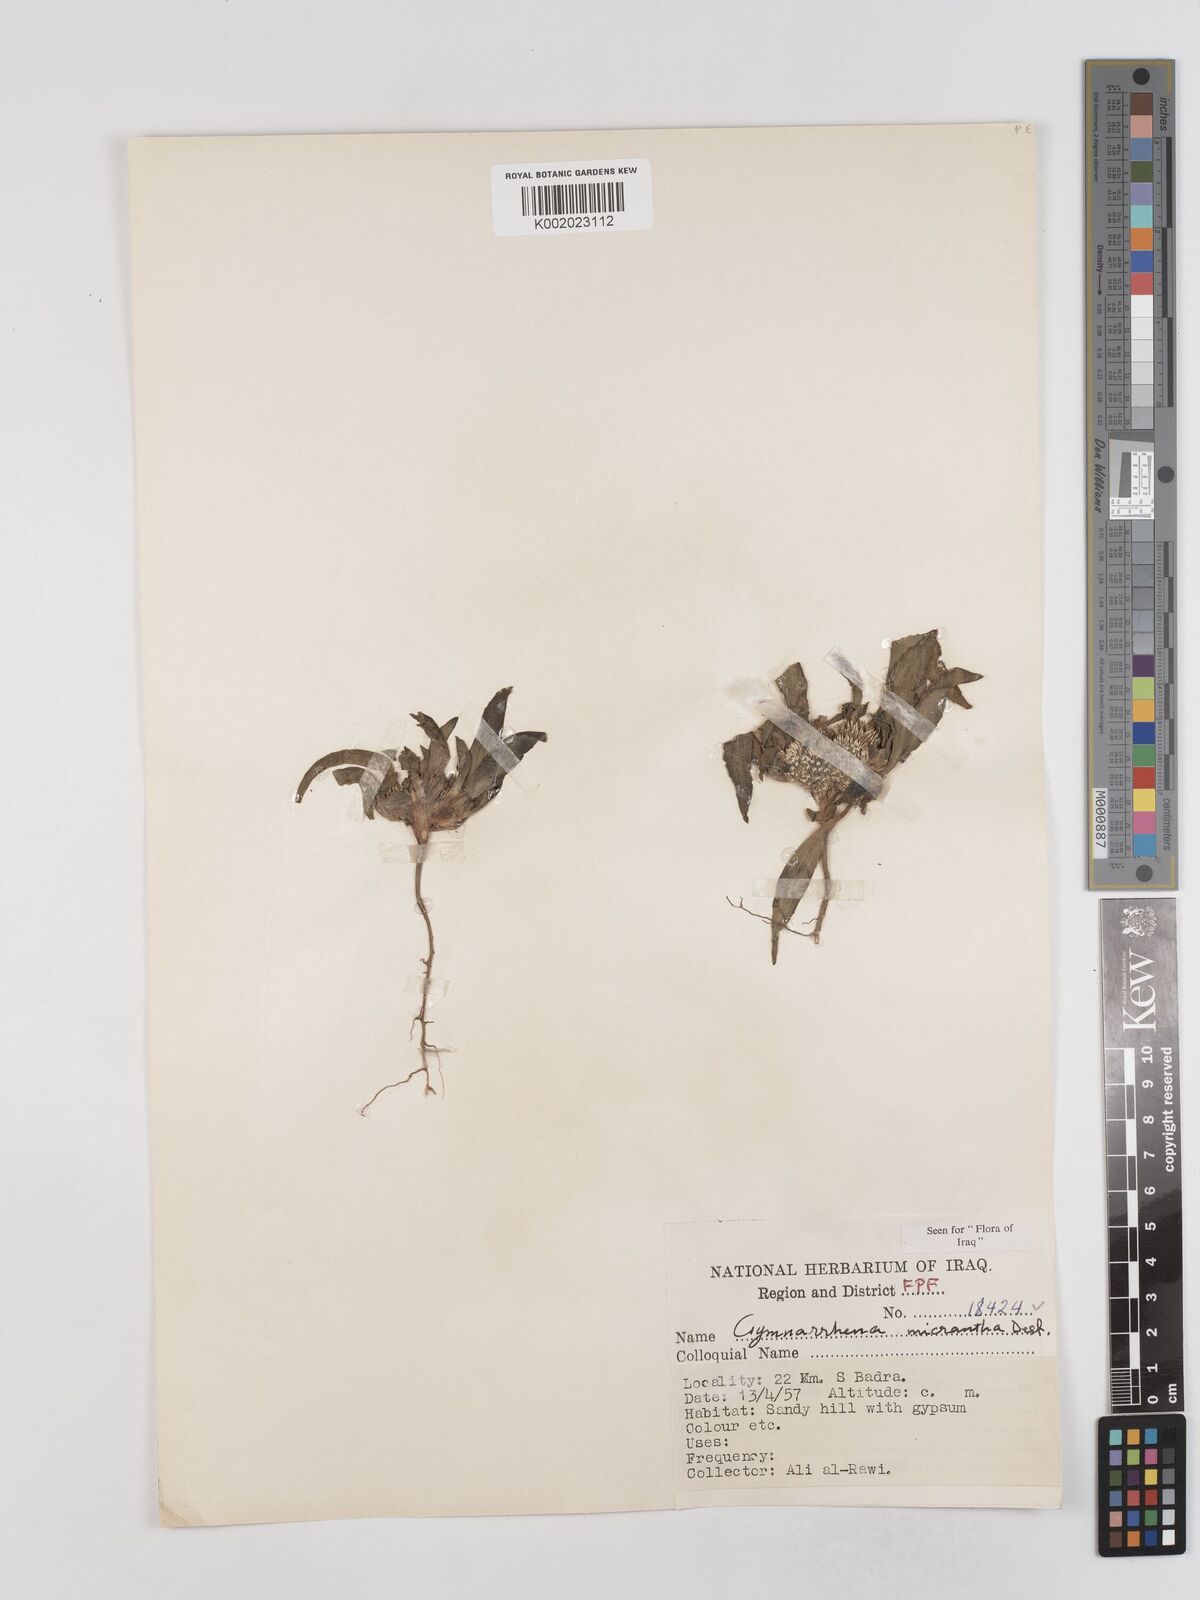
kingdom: Plantae
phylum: Tracheophyta
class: Magnoliopsida
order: Asterales
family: Asteraceae
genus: Gymnarrhena
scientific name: Gymnarrhena micrantha
